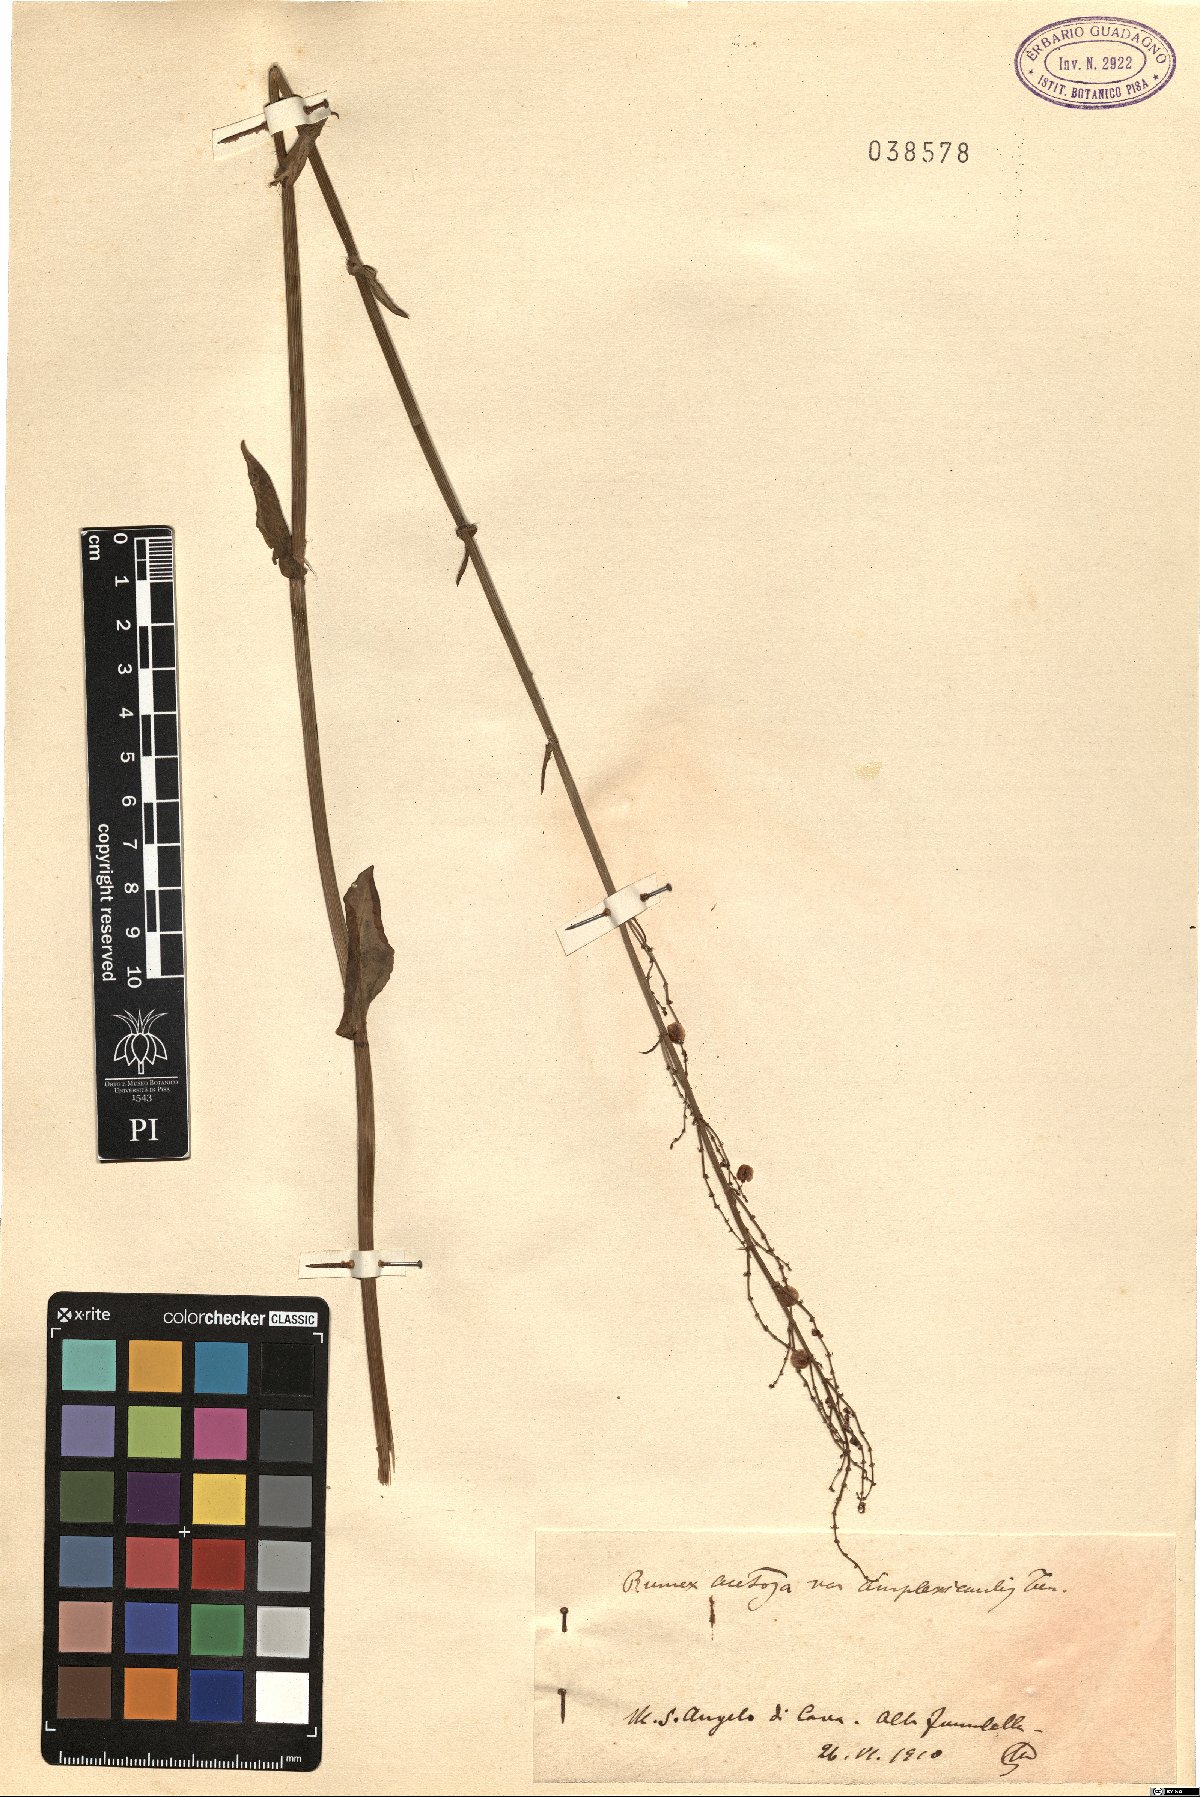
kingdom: Plantae
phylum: Tracheophyta
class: Magnoliopsida
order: Caryophyllales
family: Polygonaceae
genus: Rumex
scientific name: Rumex arifolius
